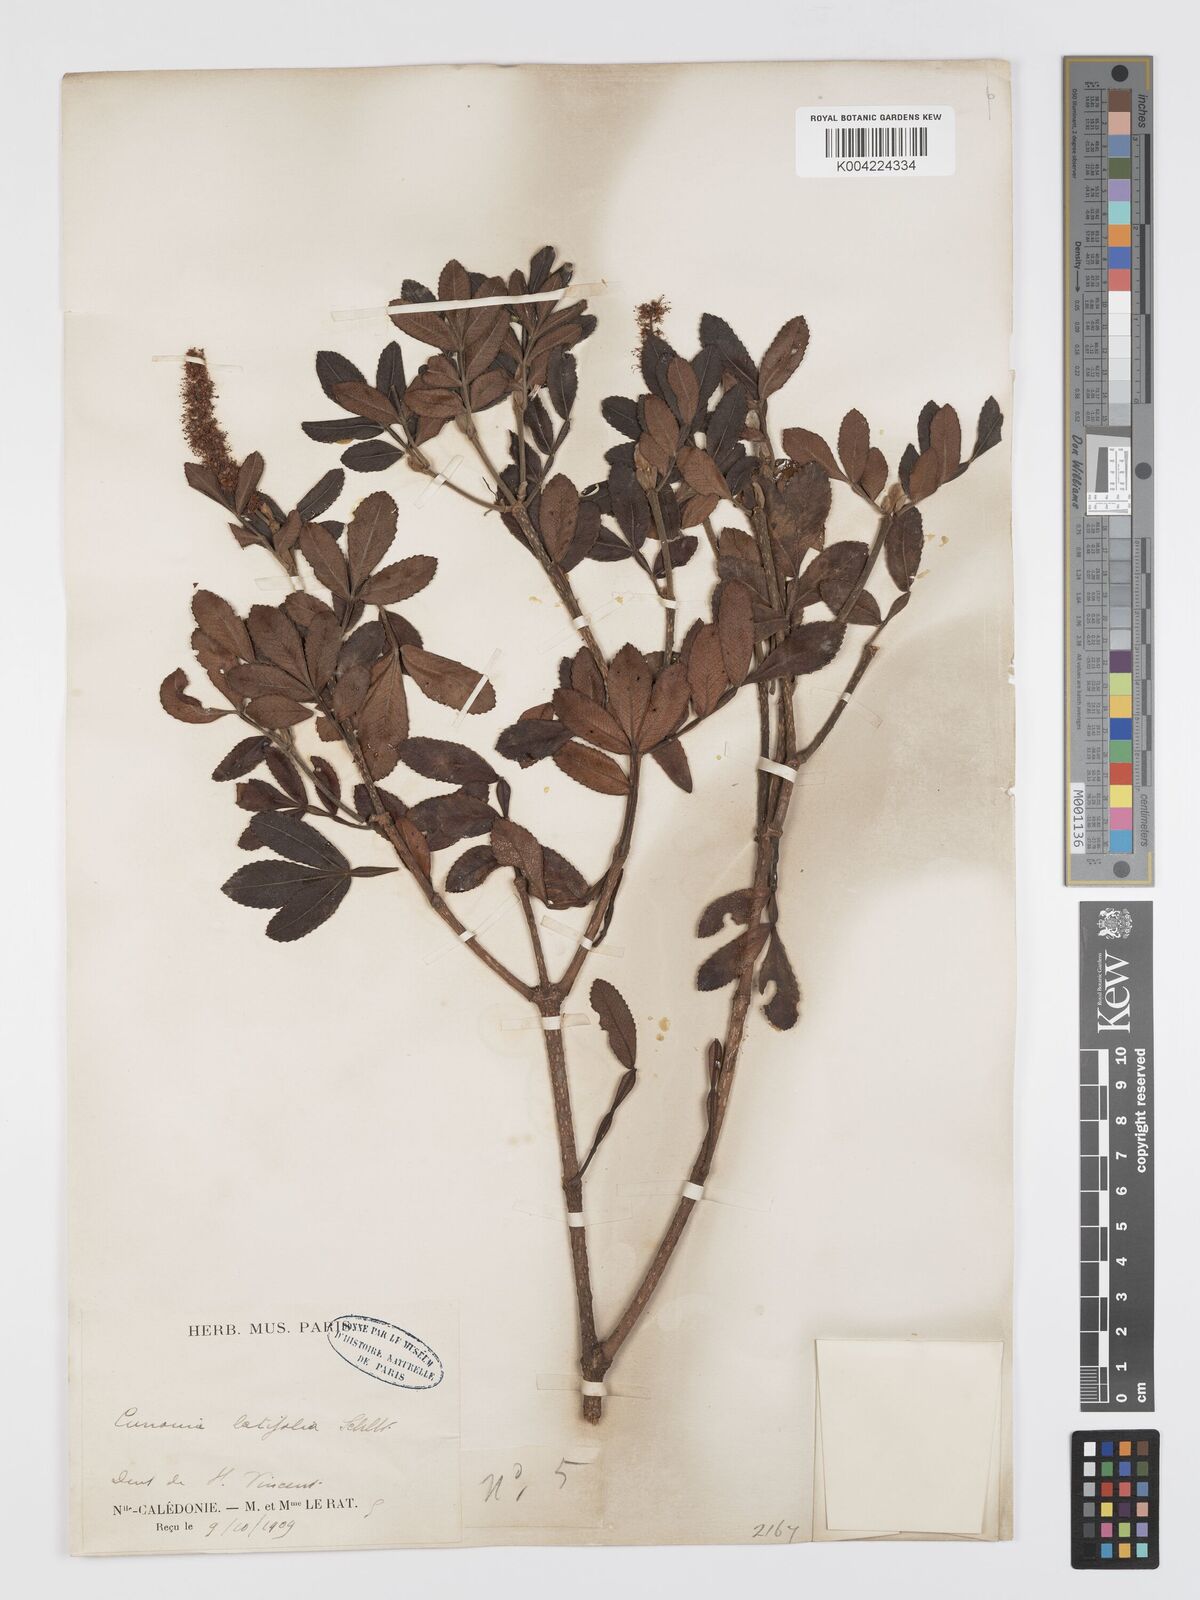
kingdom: Plantae
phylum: Tracheophyta
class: Magnoliopsida
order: Oxalidales
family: Cunoniaceae
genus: Cunonia
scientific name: Cunonia pulchella
